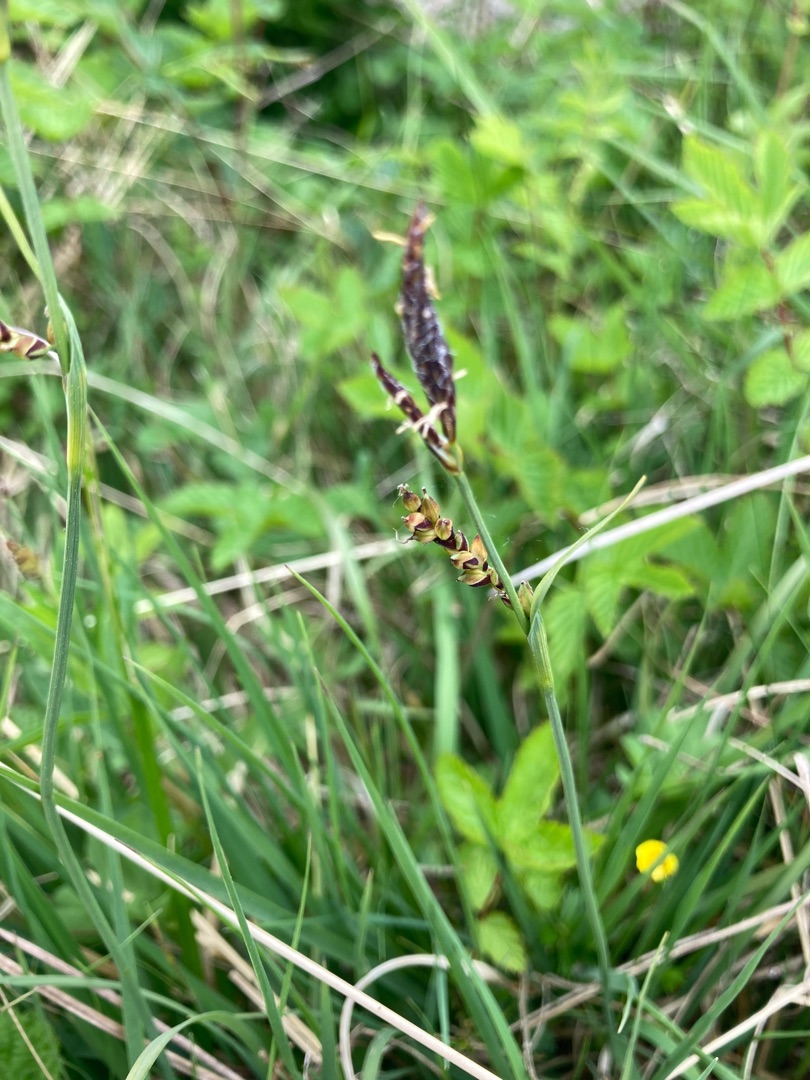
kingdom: Plantae
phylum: Tracheophyta
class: Liliopsida
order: Poales
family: Cyperaceae
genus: Carex
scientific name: Carex panicea
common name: Hirse-star
